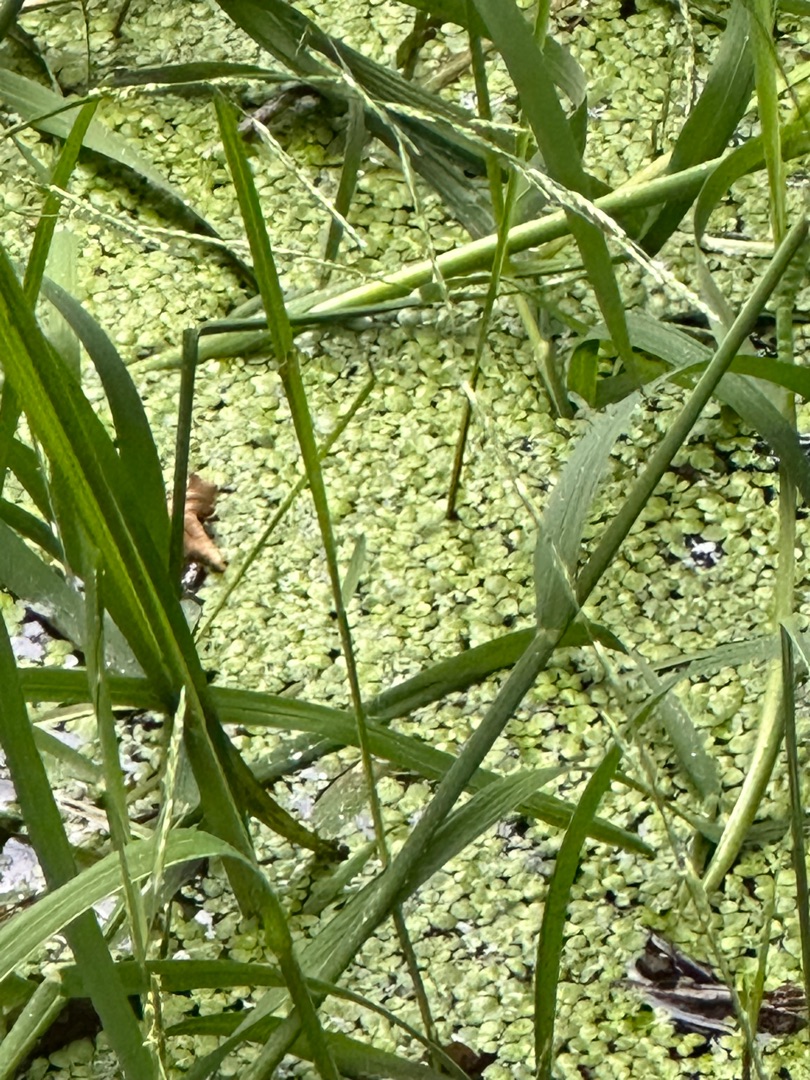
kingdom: Plantae
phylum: Tracheophyta
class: Liliopsida
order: Poales
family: Poaceae
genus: Glyceria
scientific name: Glyceria fluitans
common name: Manna-sødgræs
